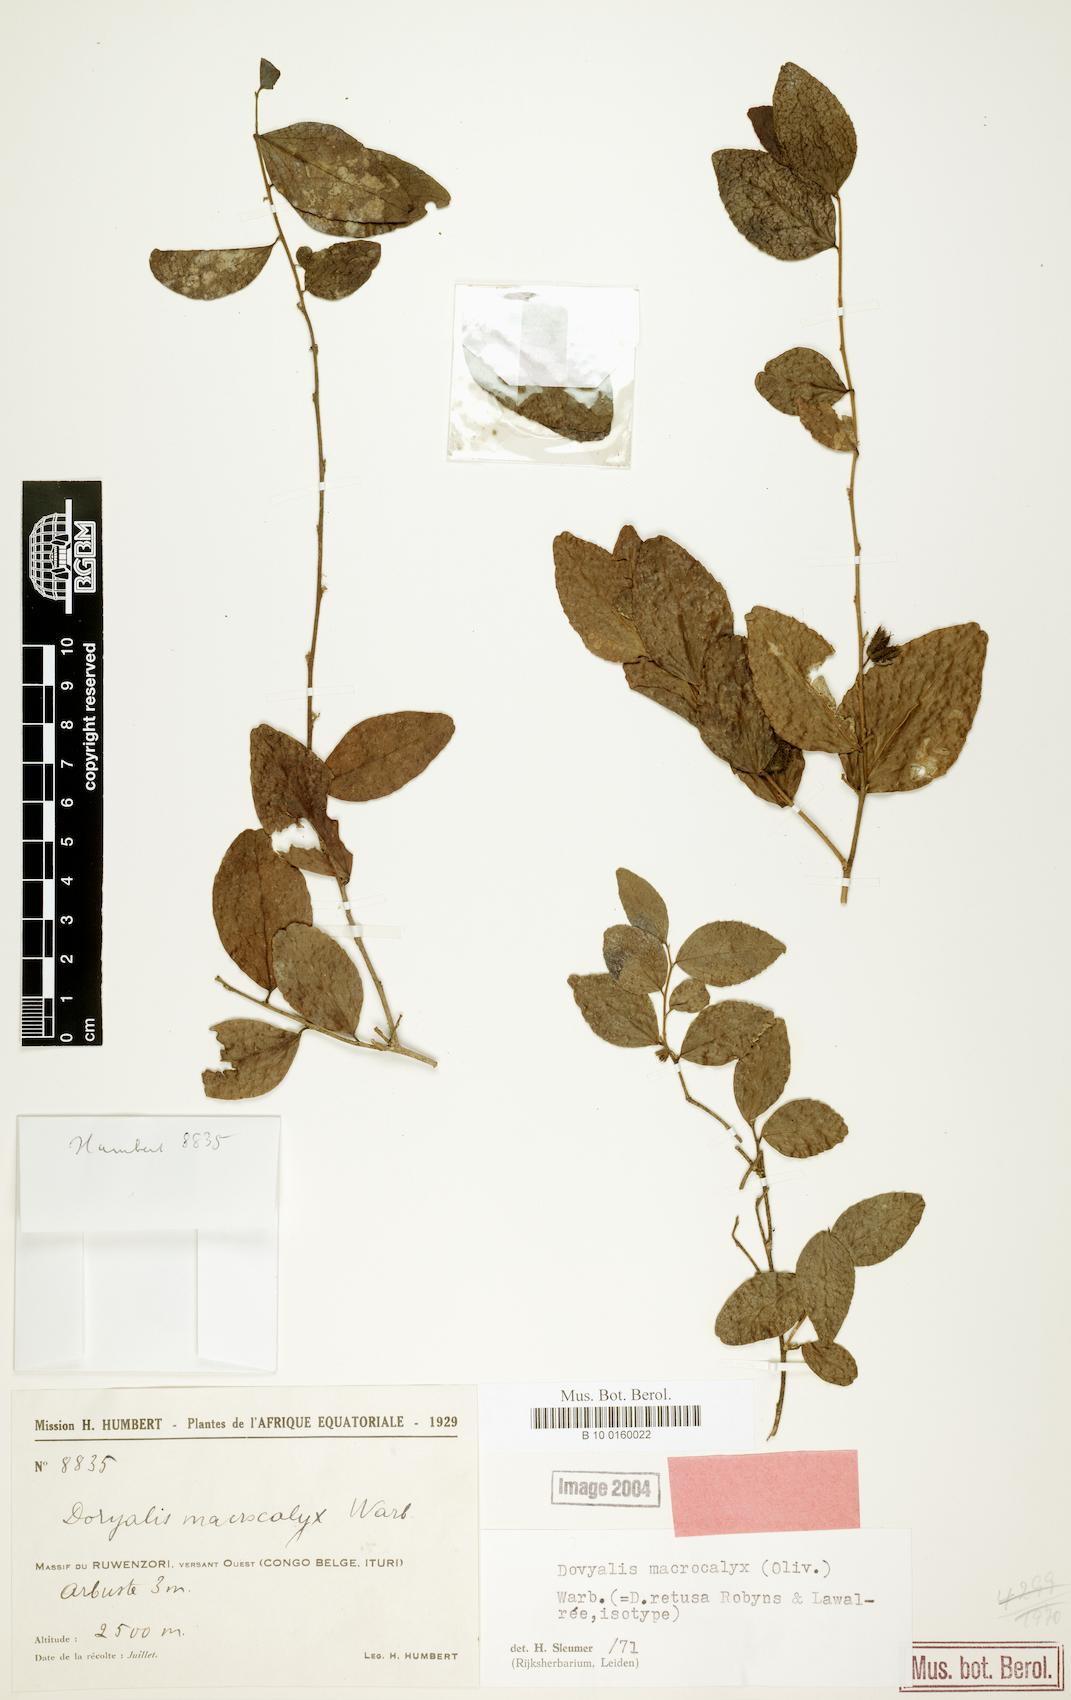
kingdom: Plantae
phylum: Tracheophyta
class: Magnoliopsida
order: Malpighiales
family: Salicaceae
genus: Dovyalis
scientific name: Dovyalis macrocalyx
